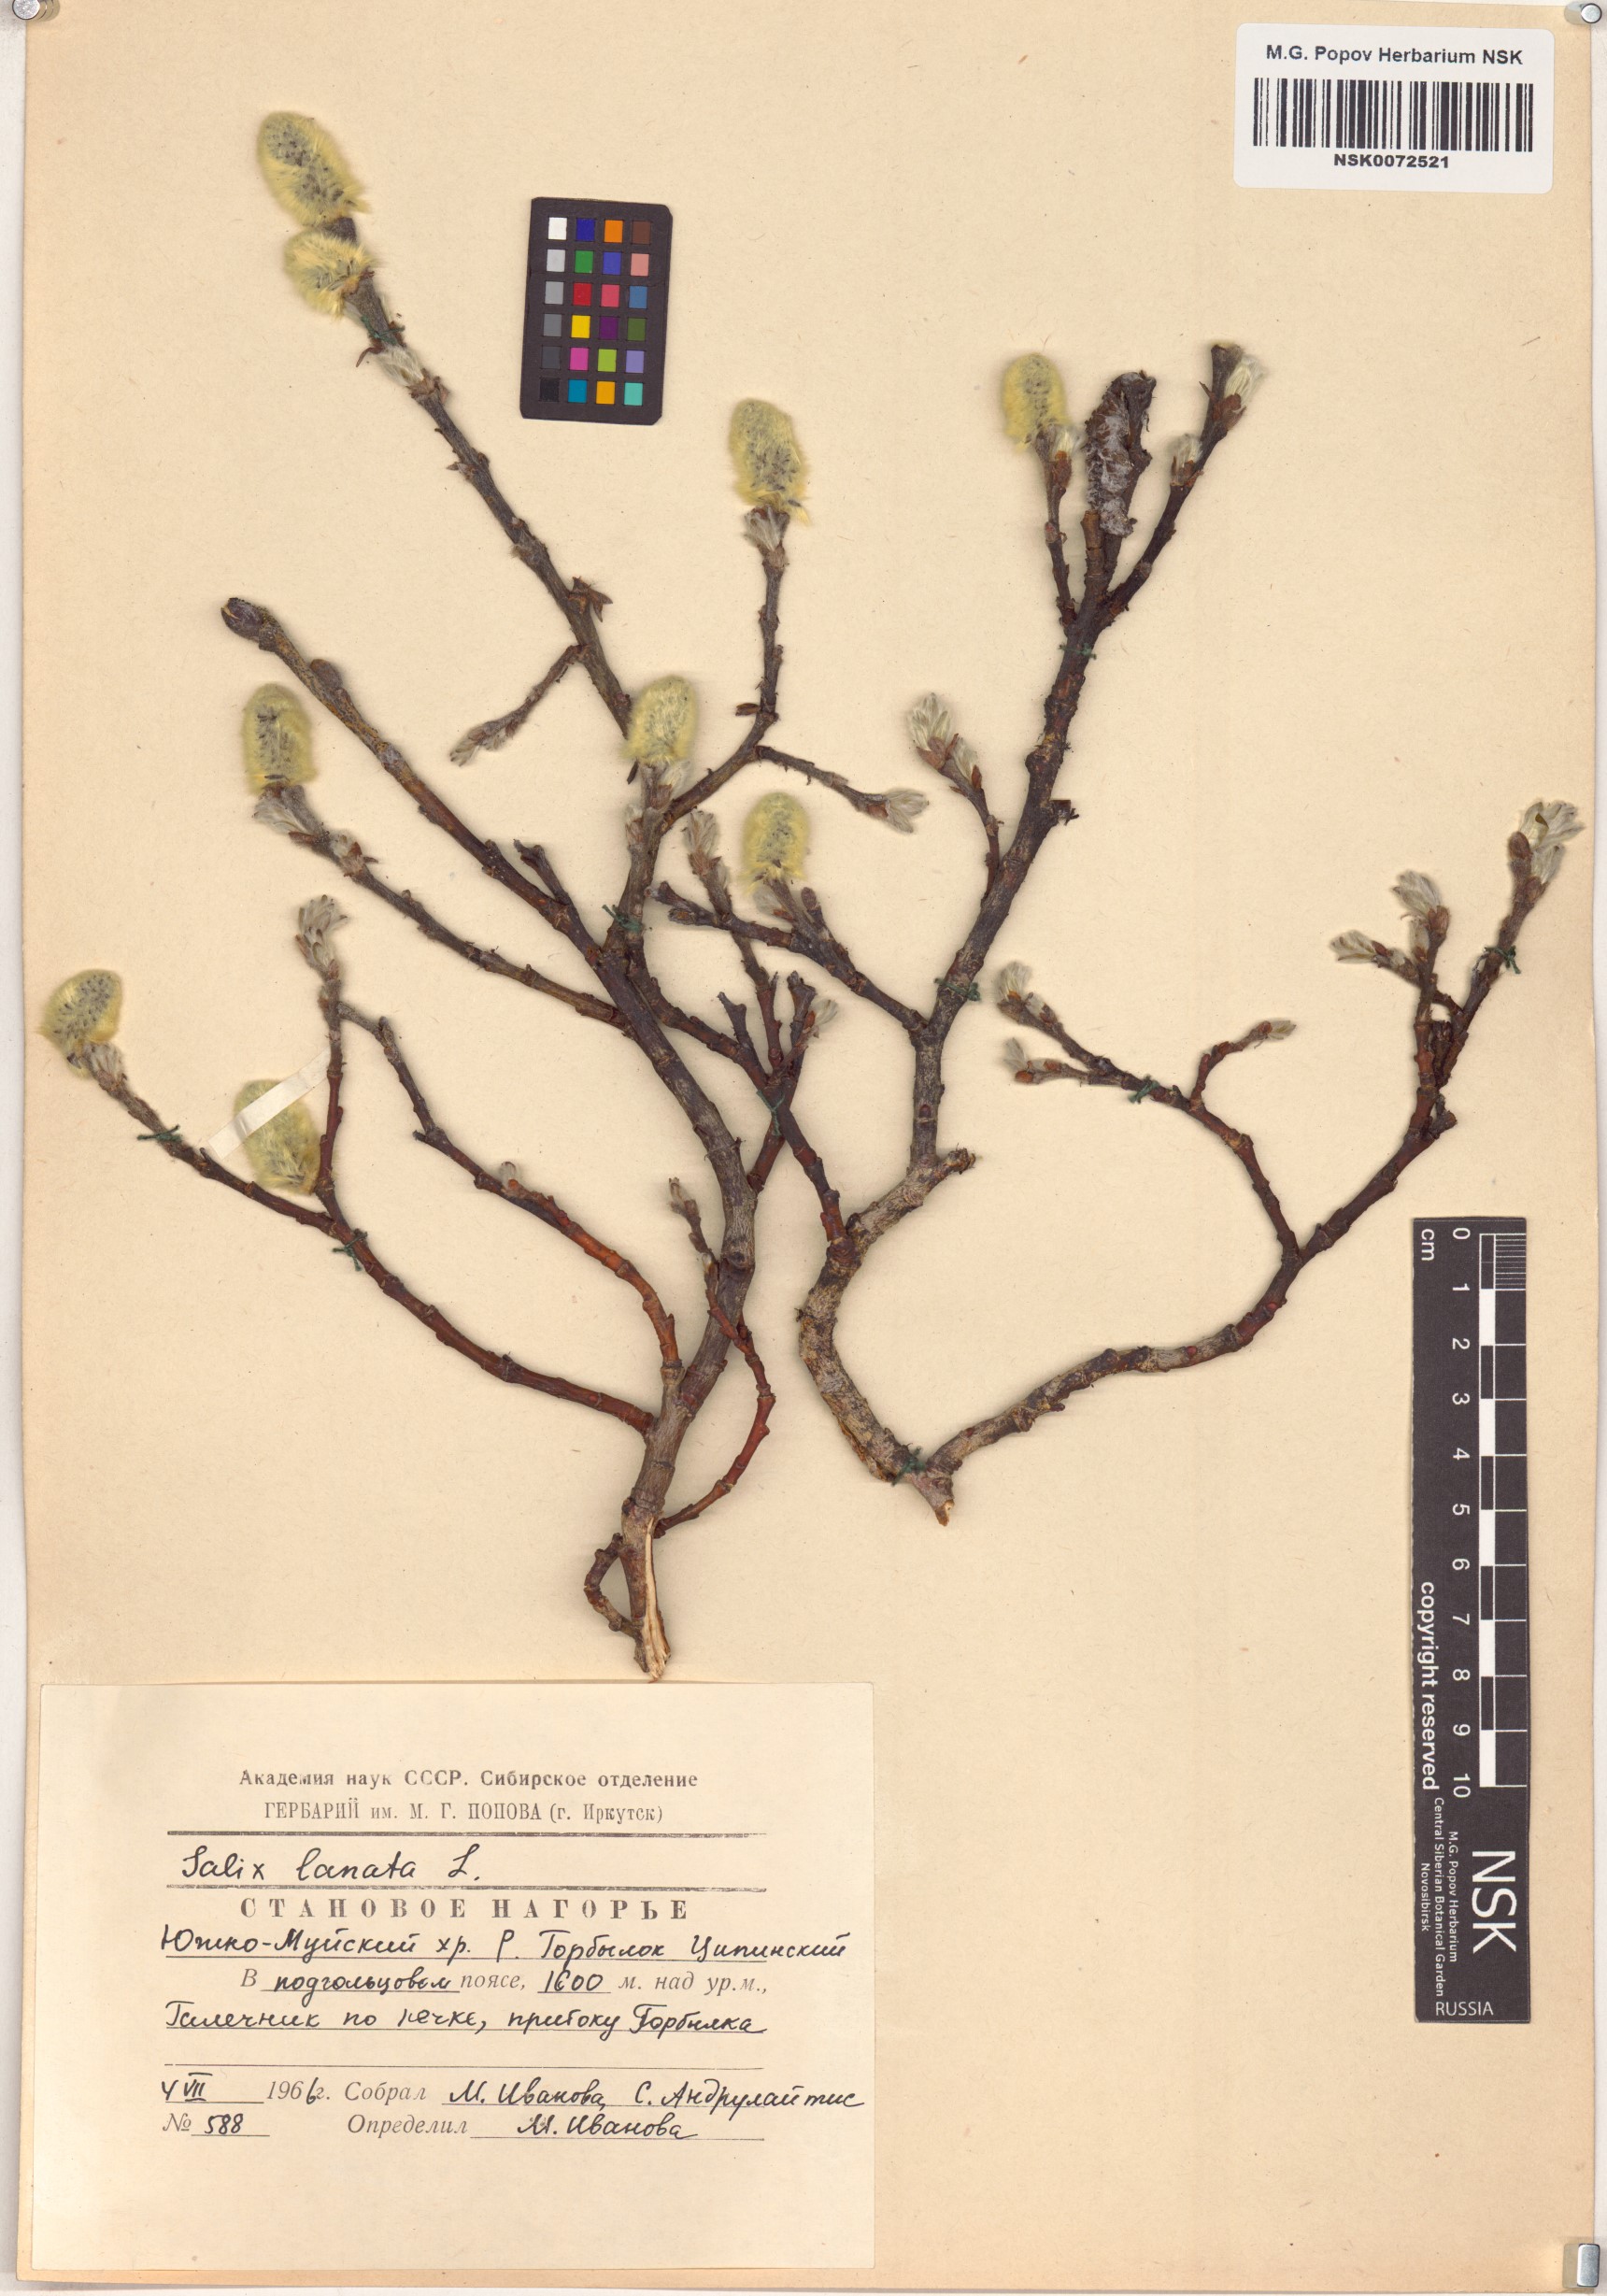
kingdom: Plantae
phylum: Tracheophyta
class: Magnoliopsida
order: Malpighiales
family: Salicaceae
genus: Salix
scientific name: Salix lanata
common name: Woolly willow
